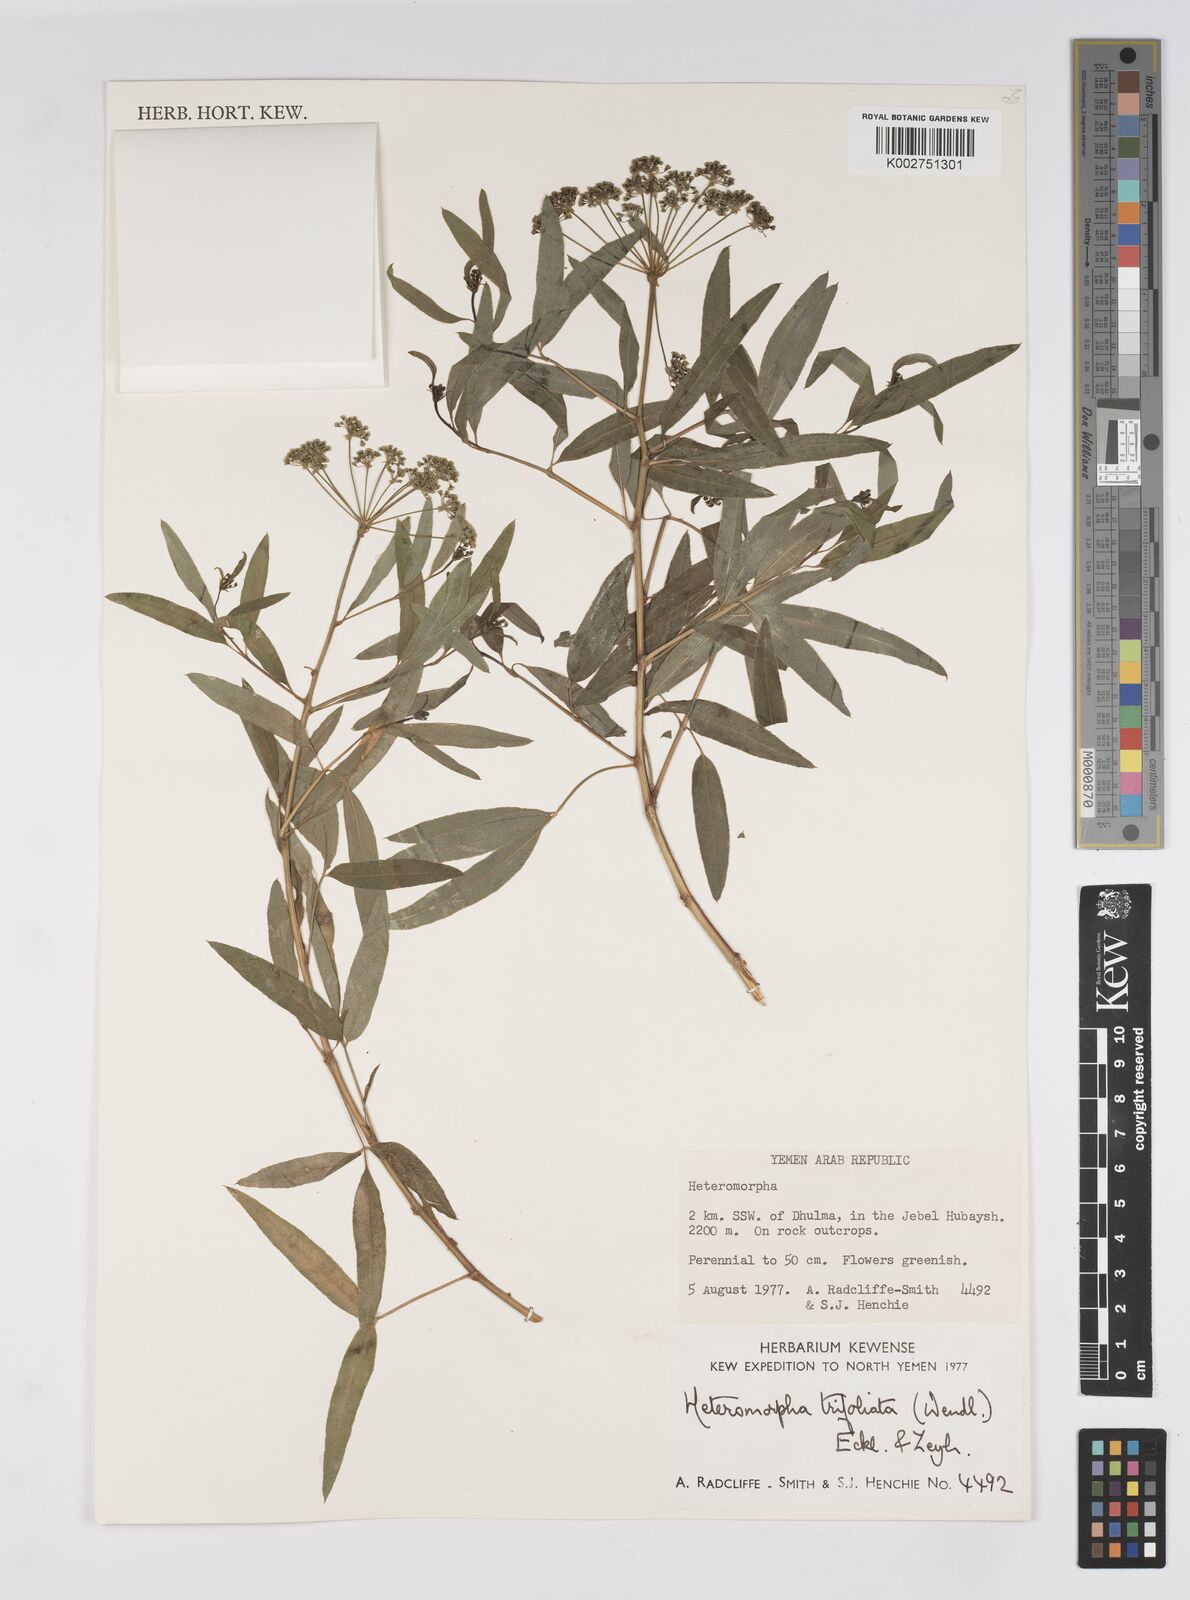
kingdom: Plantae
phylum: Tracheophyta
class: Magnoliopsida
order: Apiales
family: Apiaceae
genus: Heteromorpha
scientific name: Heteromorpha arborescens
